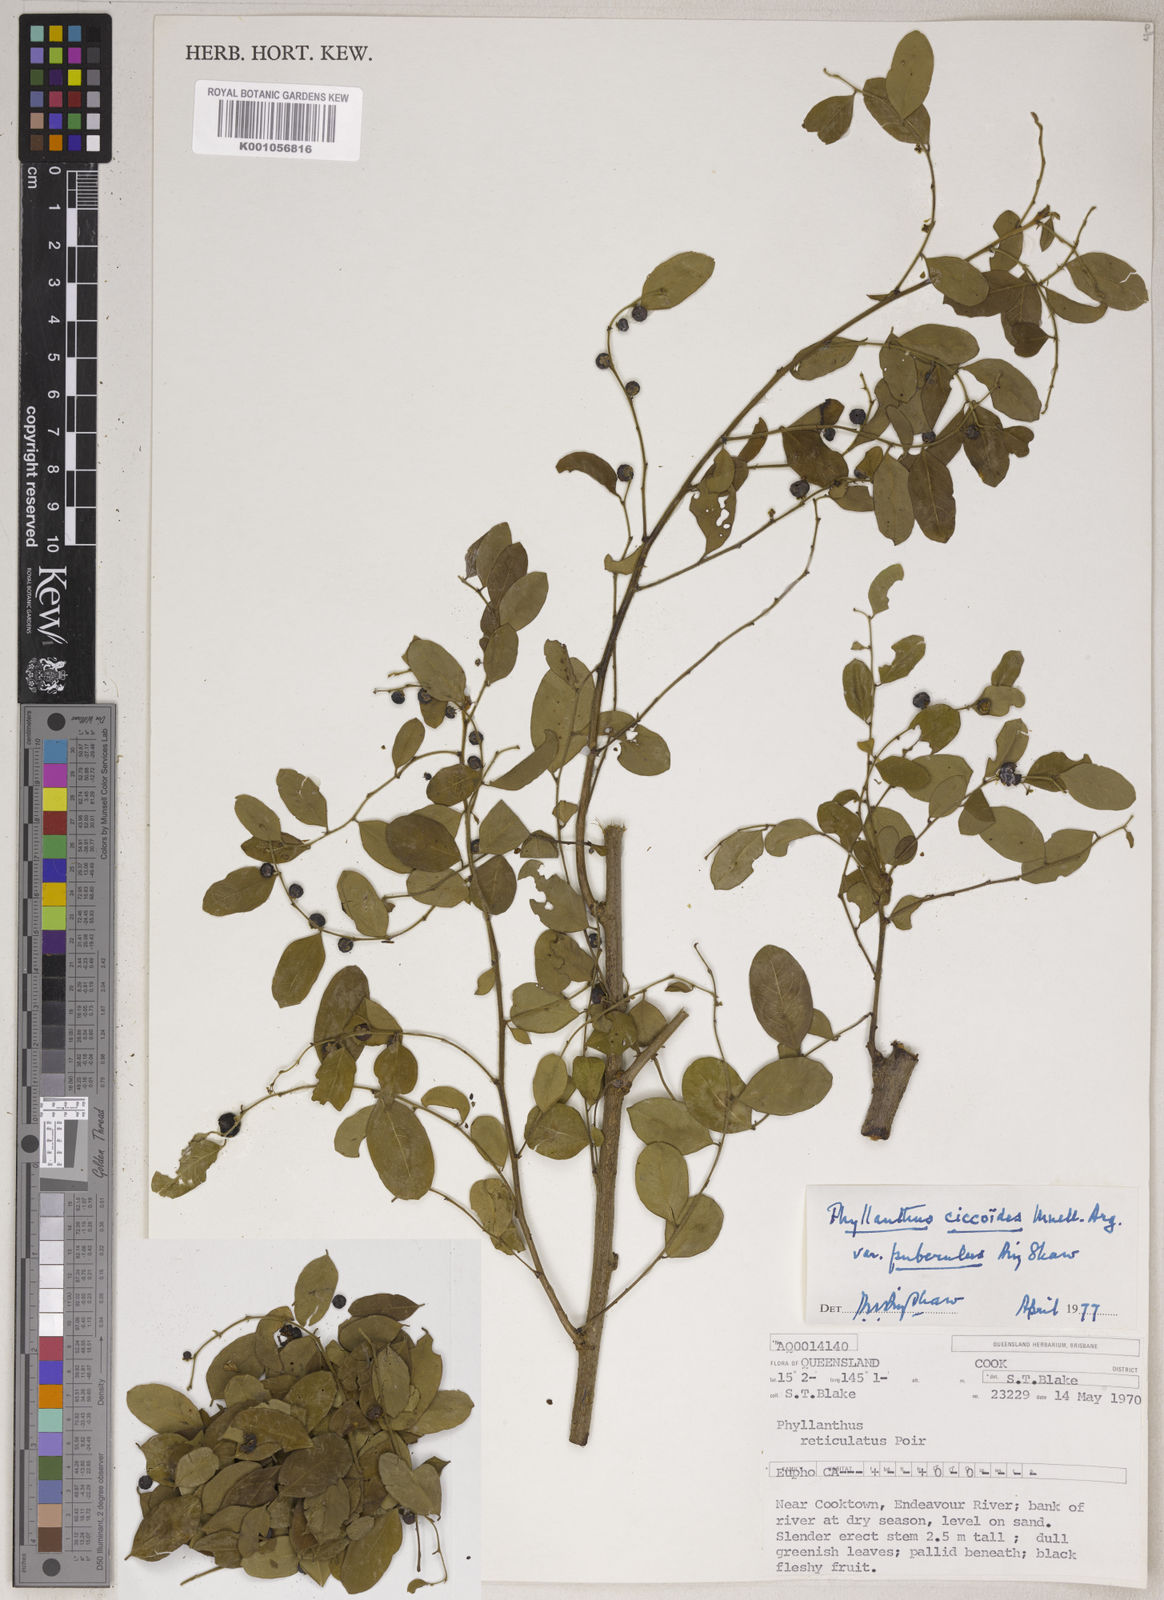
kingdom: Plantae
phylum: Tracheophyta
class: Magnoliopsida
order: Malpighiales
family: Phyllanthaceae
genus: Phyllanthus
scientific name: Phyllanthus
